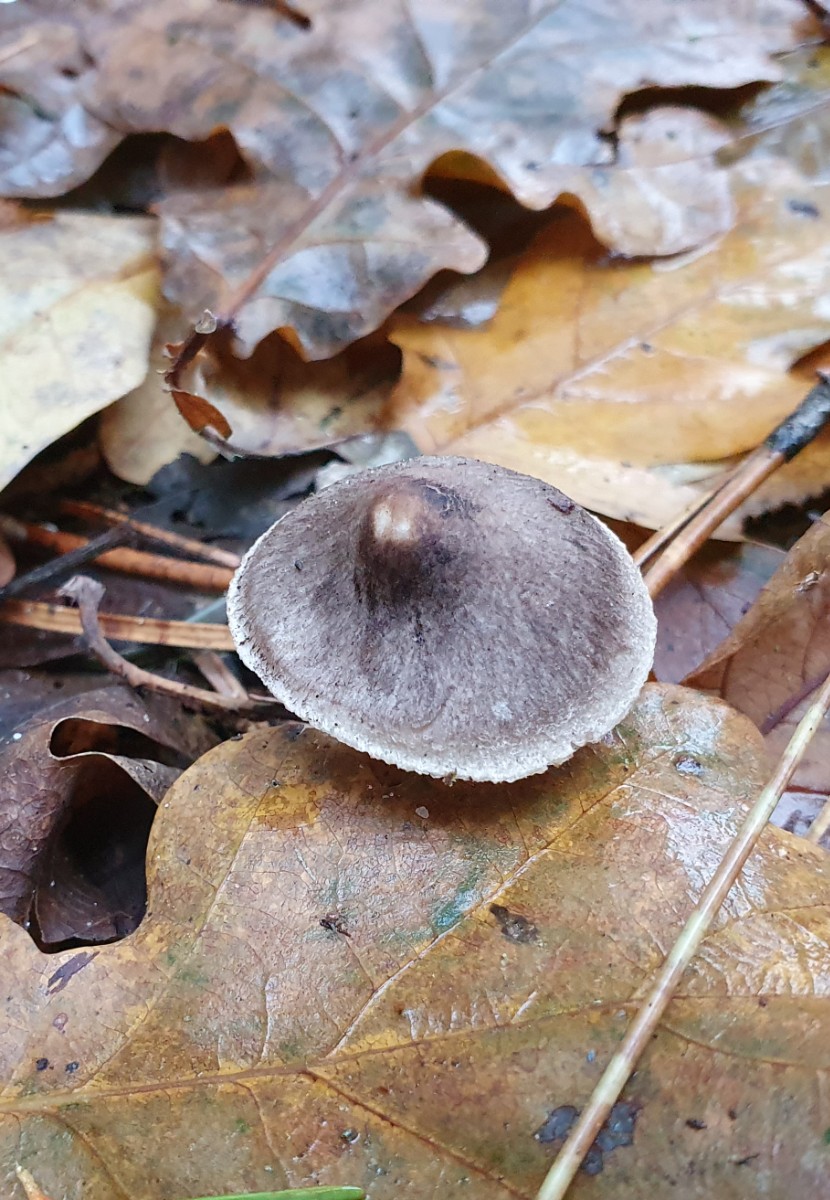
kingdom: Fungi
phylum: Basidiomycota
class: Agaricomycetes
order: Agaricales
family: Tricholomataceae
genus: Tricholoma
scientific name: Tricholoma terreum
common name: jordfarvet ridderhat
